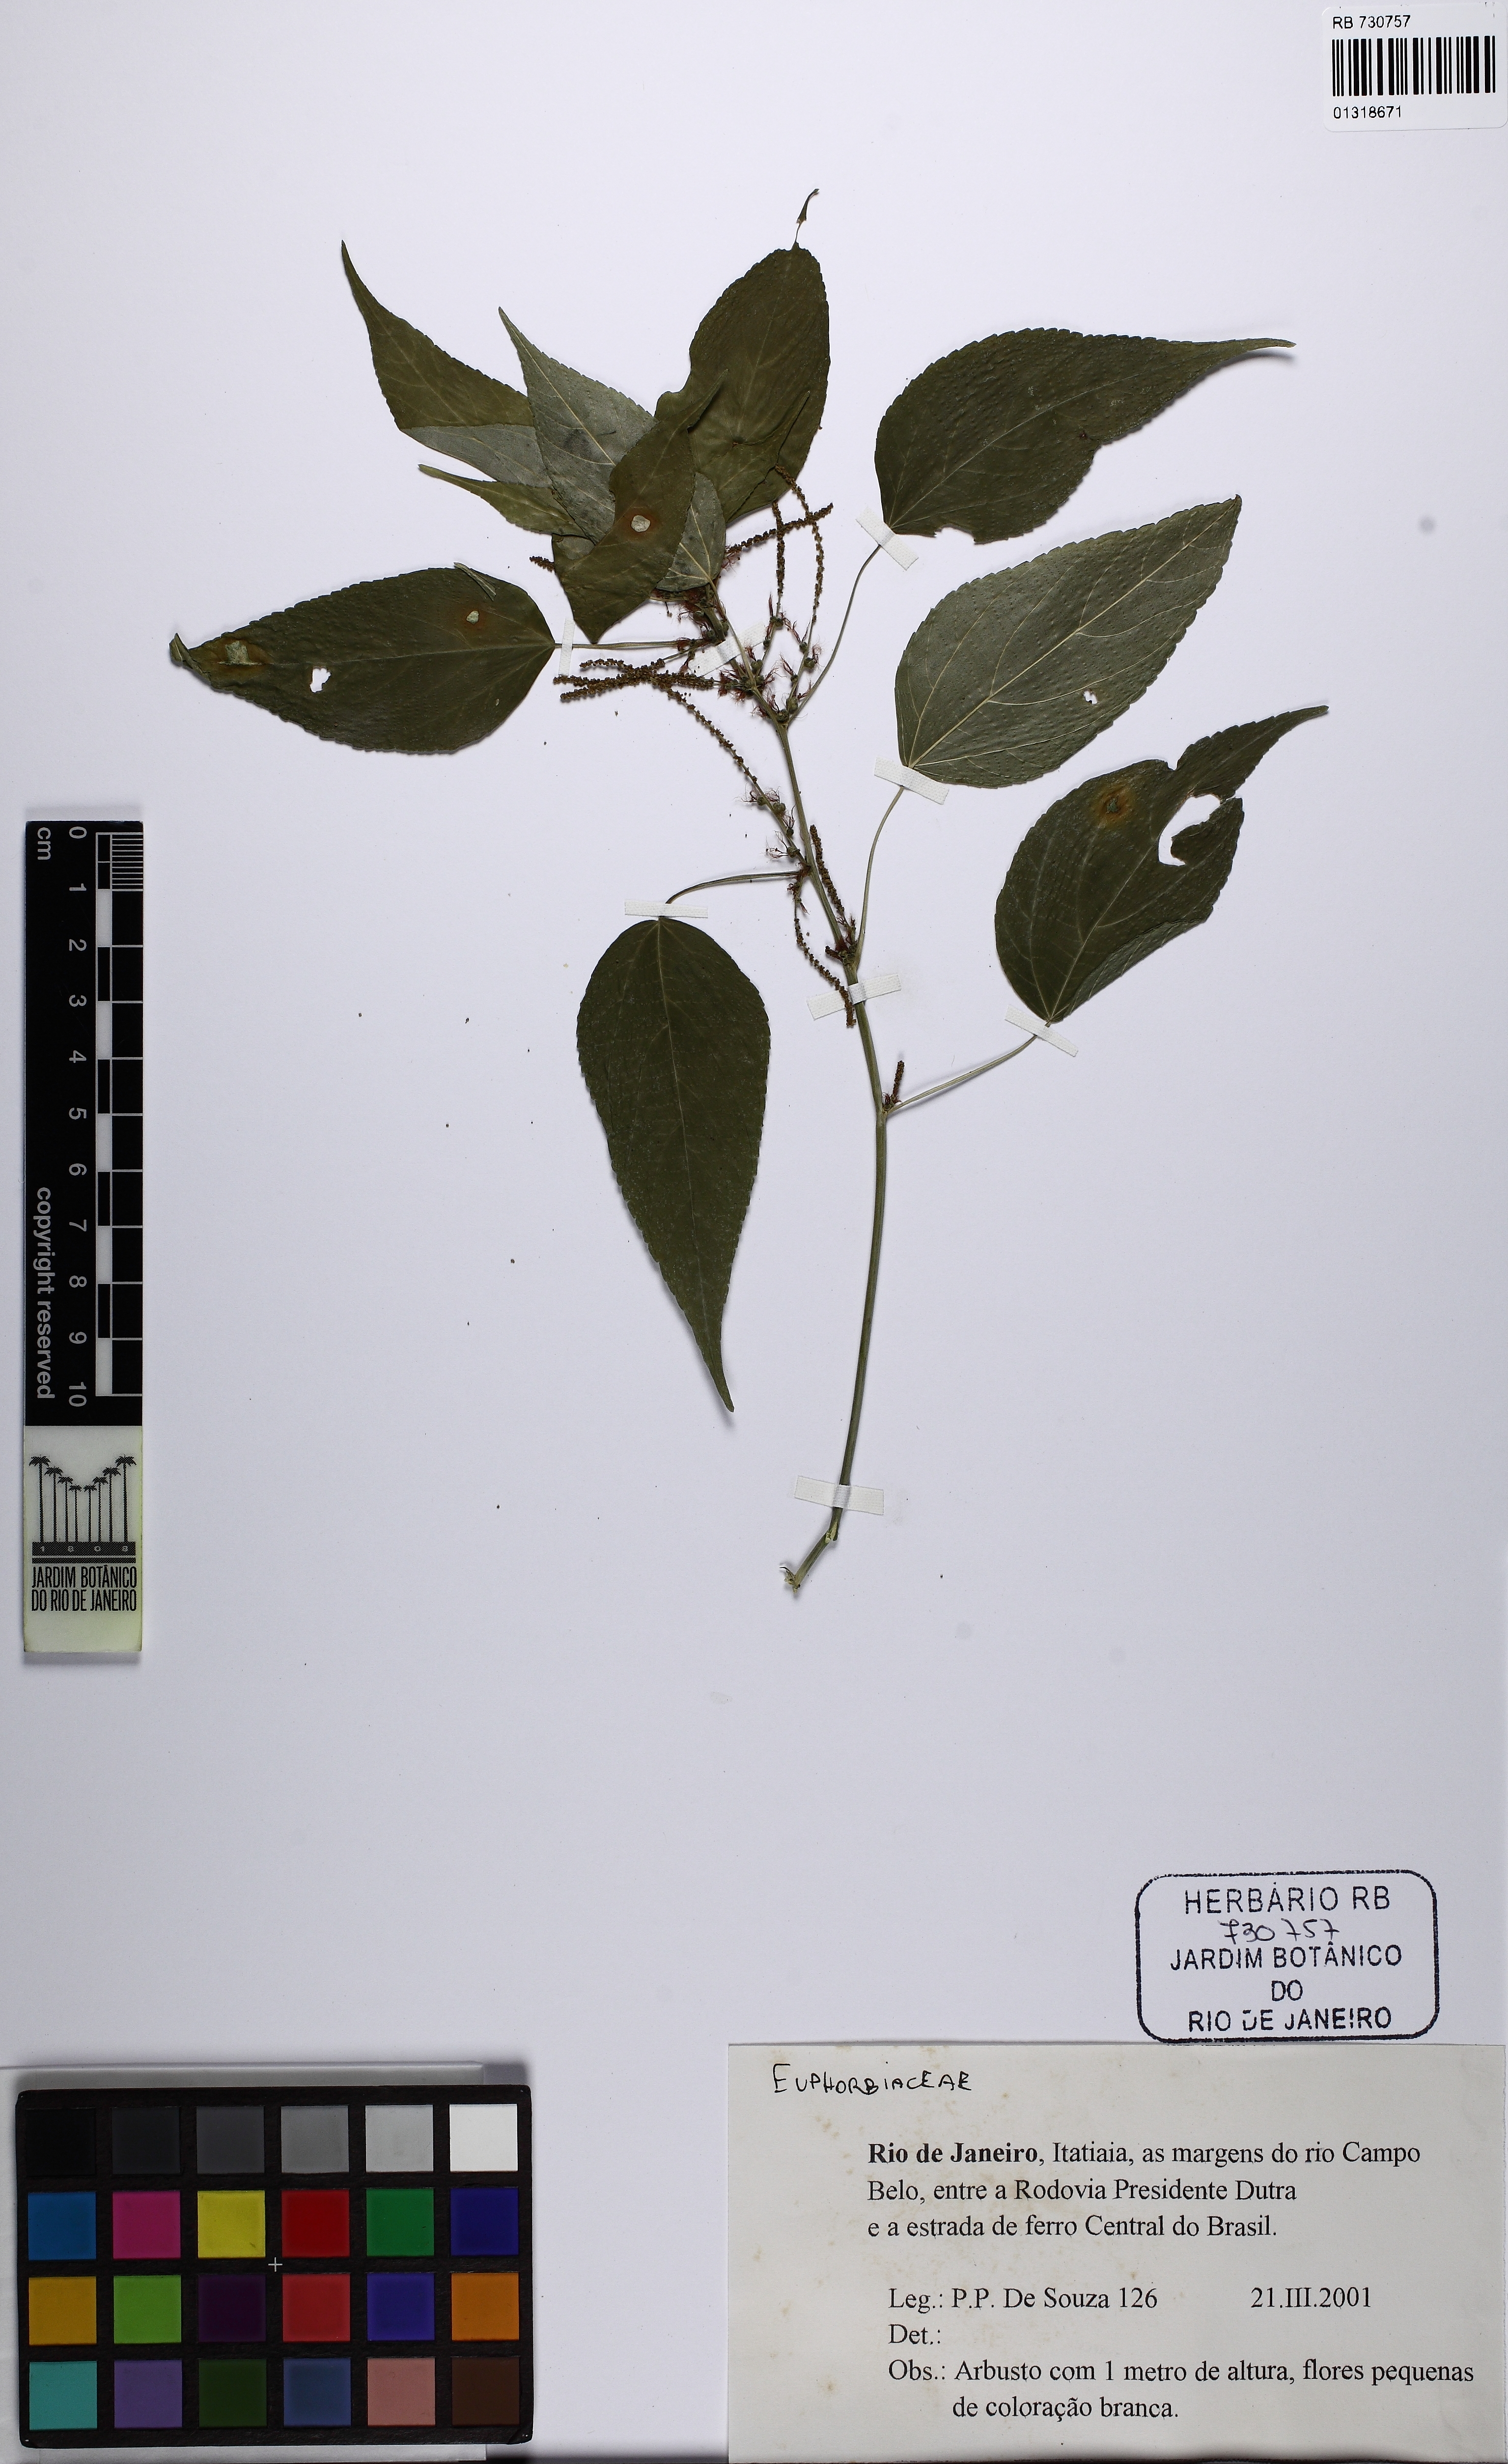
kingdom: Plantae
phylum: Tracheophyta
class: Magnoliopsida
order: Malpighiales
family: Euphorbiaceae
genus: Acalypha
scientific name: Acalypha gracilis
